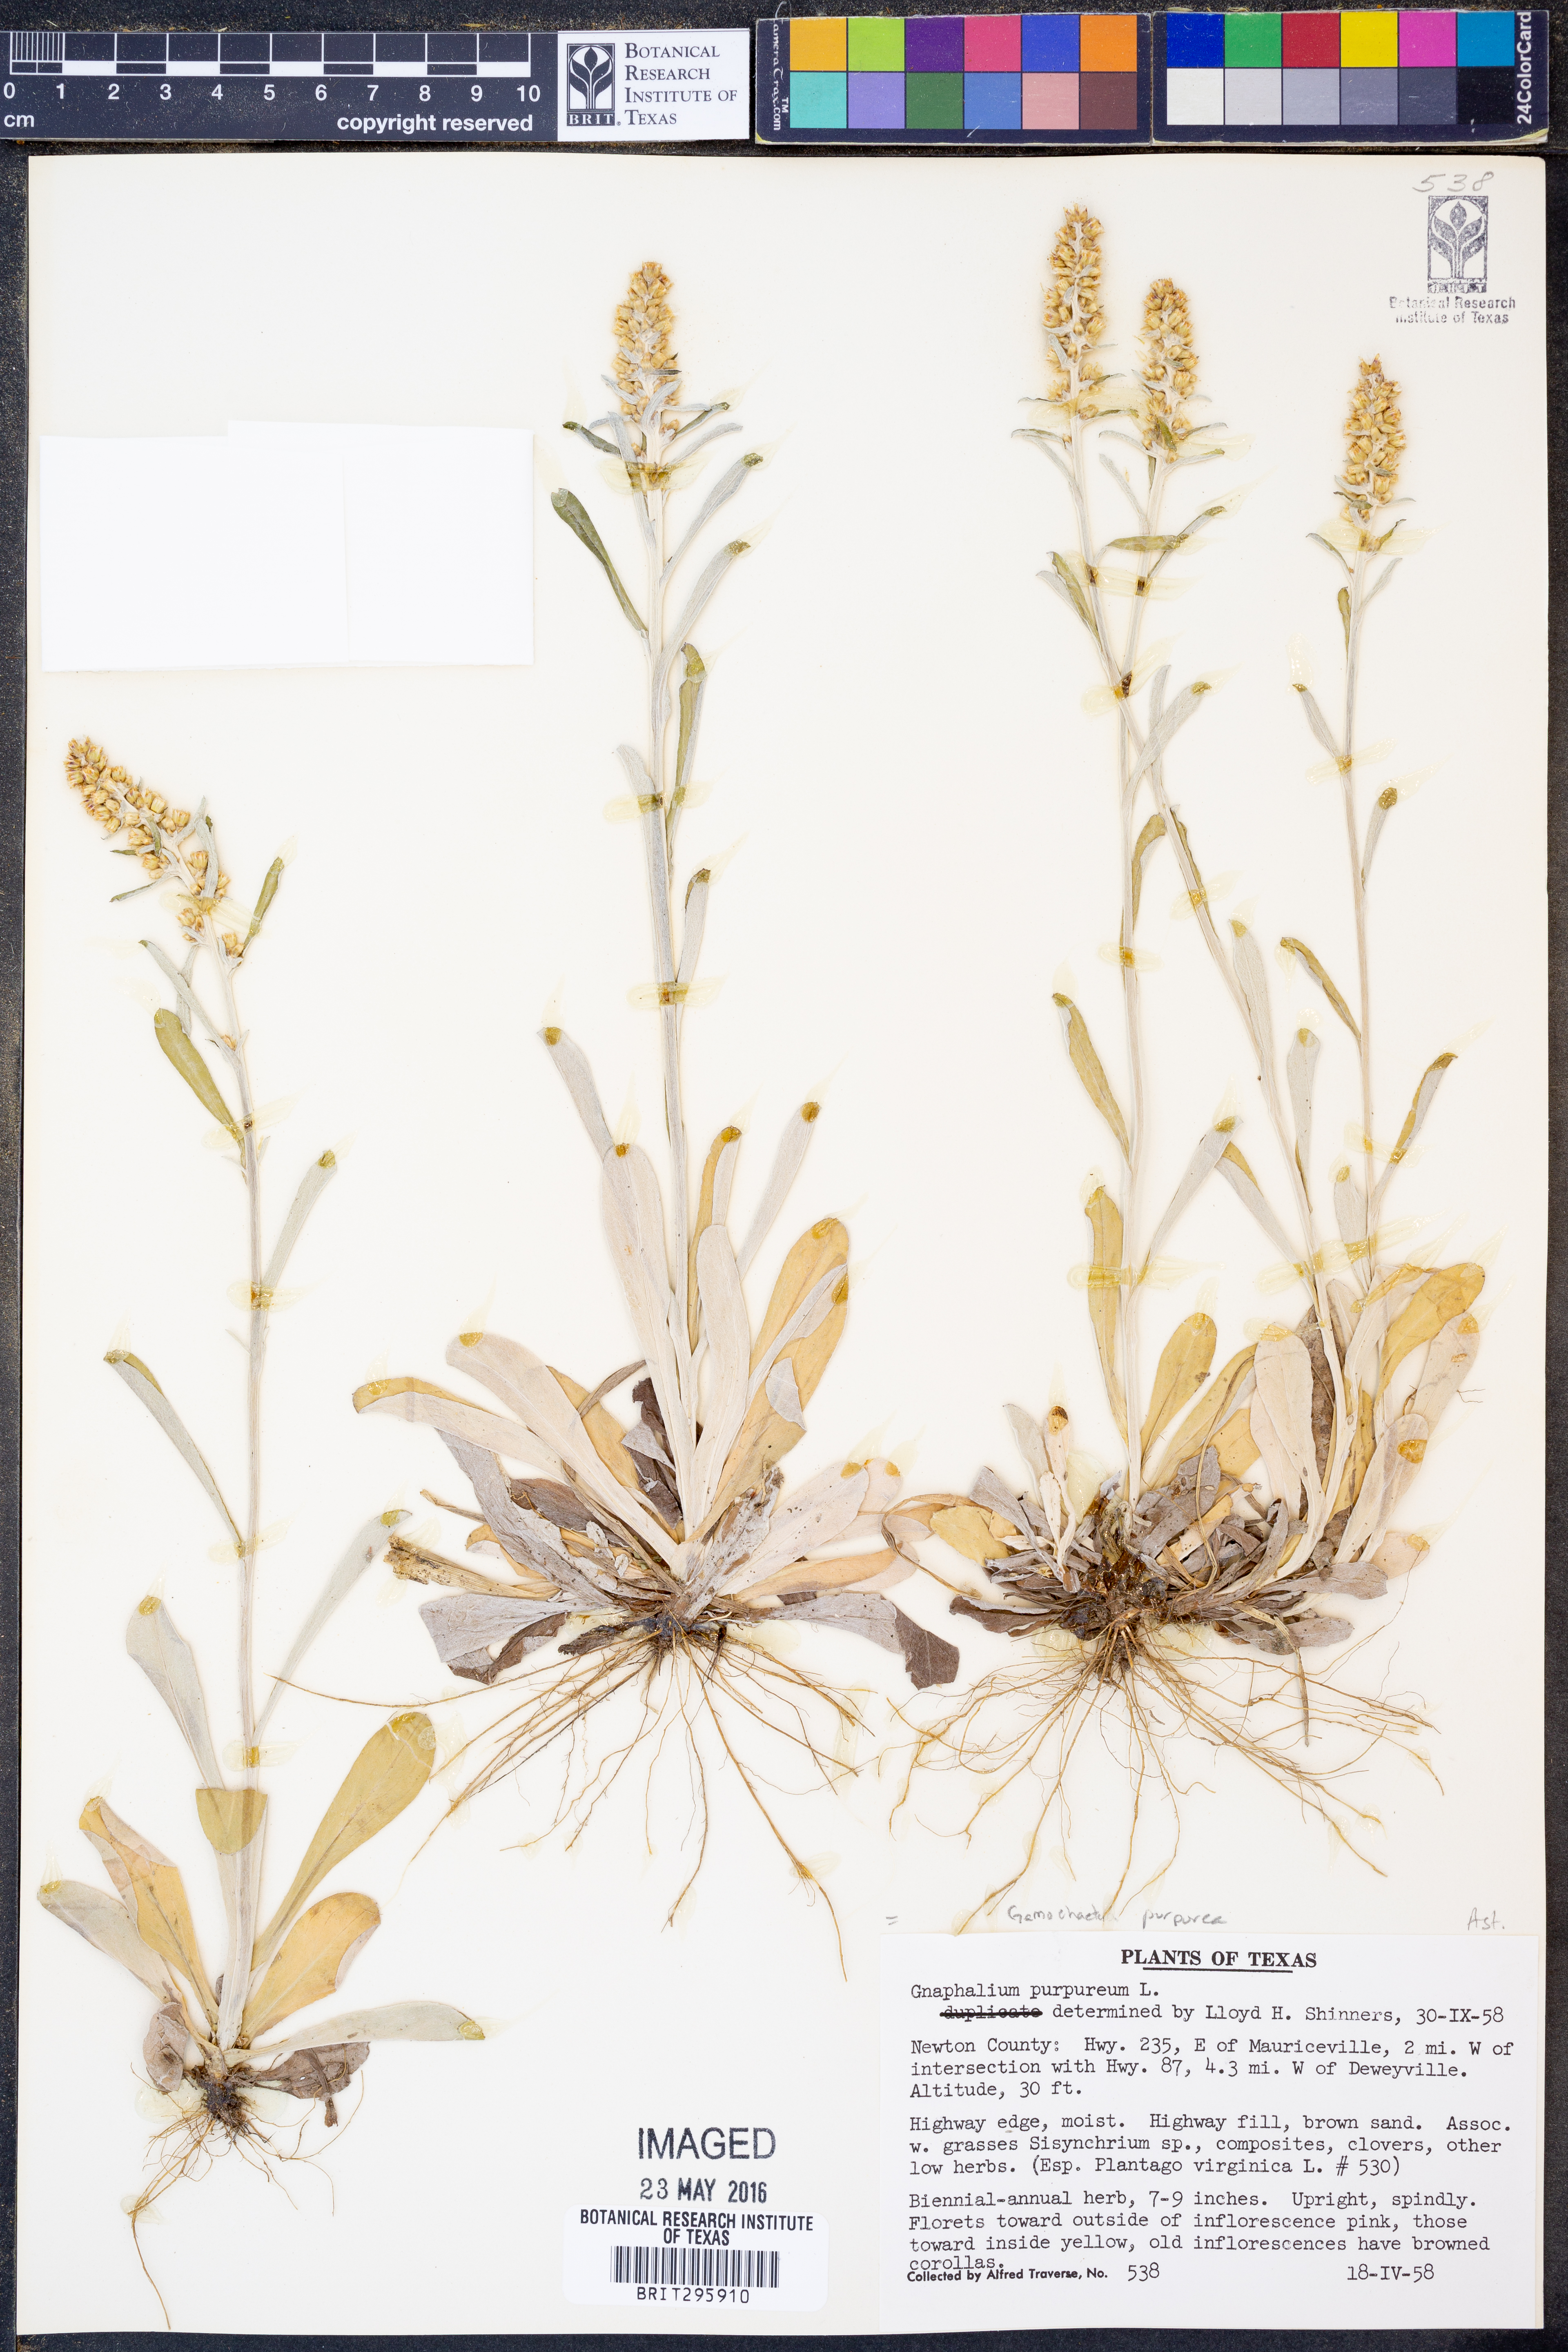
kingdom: Plantae
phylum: Tracheophyta
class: Magnoliopsida
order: Asterales
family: Asteraceae
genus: Gamochaeta
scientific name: Gamochaeta purpurea
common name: Purple cudweed
